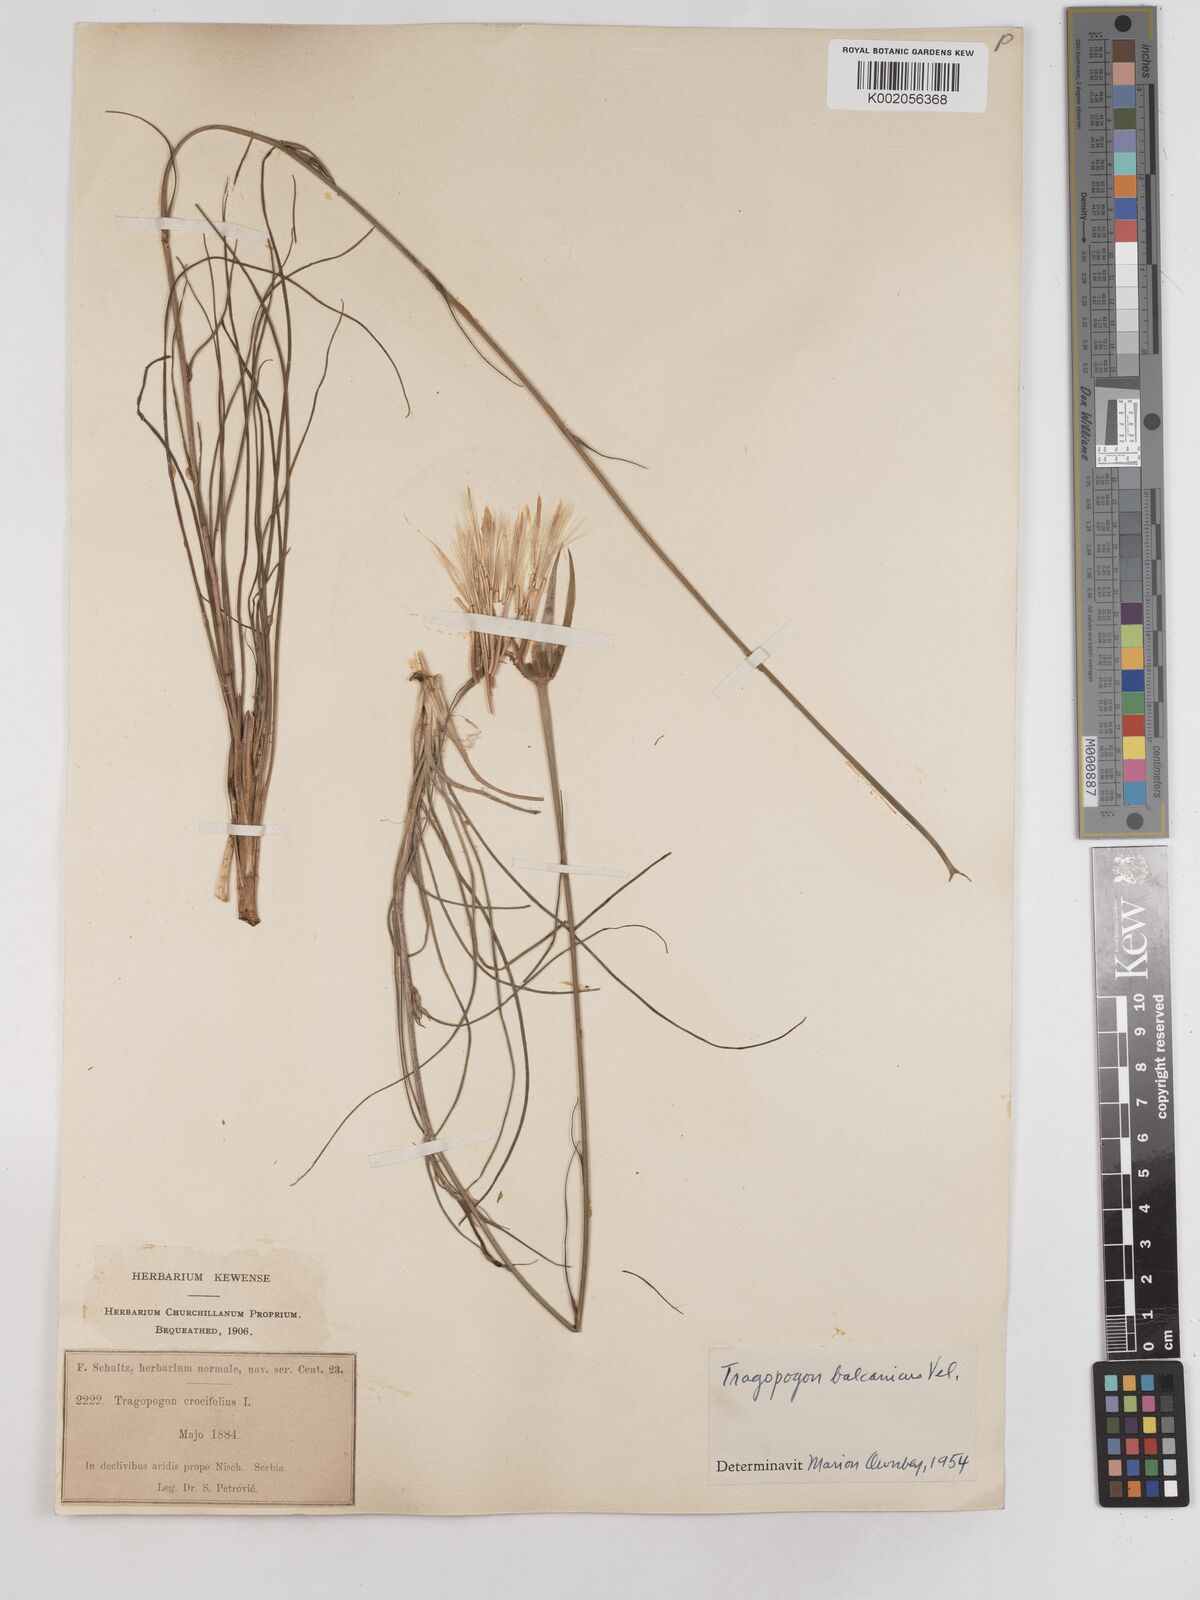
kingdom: Plantae
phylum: Tracheophyta
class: Magnoliopsida
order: Asterales
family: Asteraceae
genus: Tragopogon
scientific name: Tragopogon balcanicus
